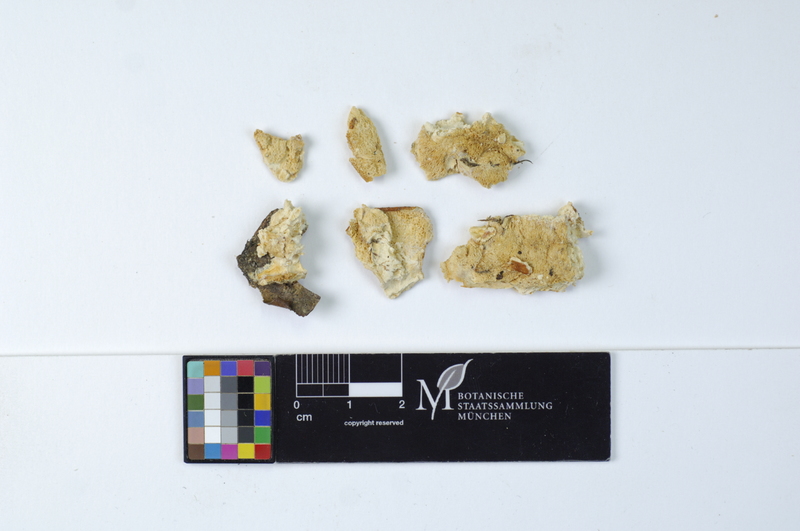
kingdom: Plantae
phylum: Tracheophyta
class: Magnoliopsida
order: Fagales
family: Fagaceae
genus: Fagus
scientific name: Fagus sylvatica
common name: Beech
